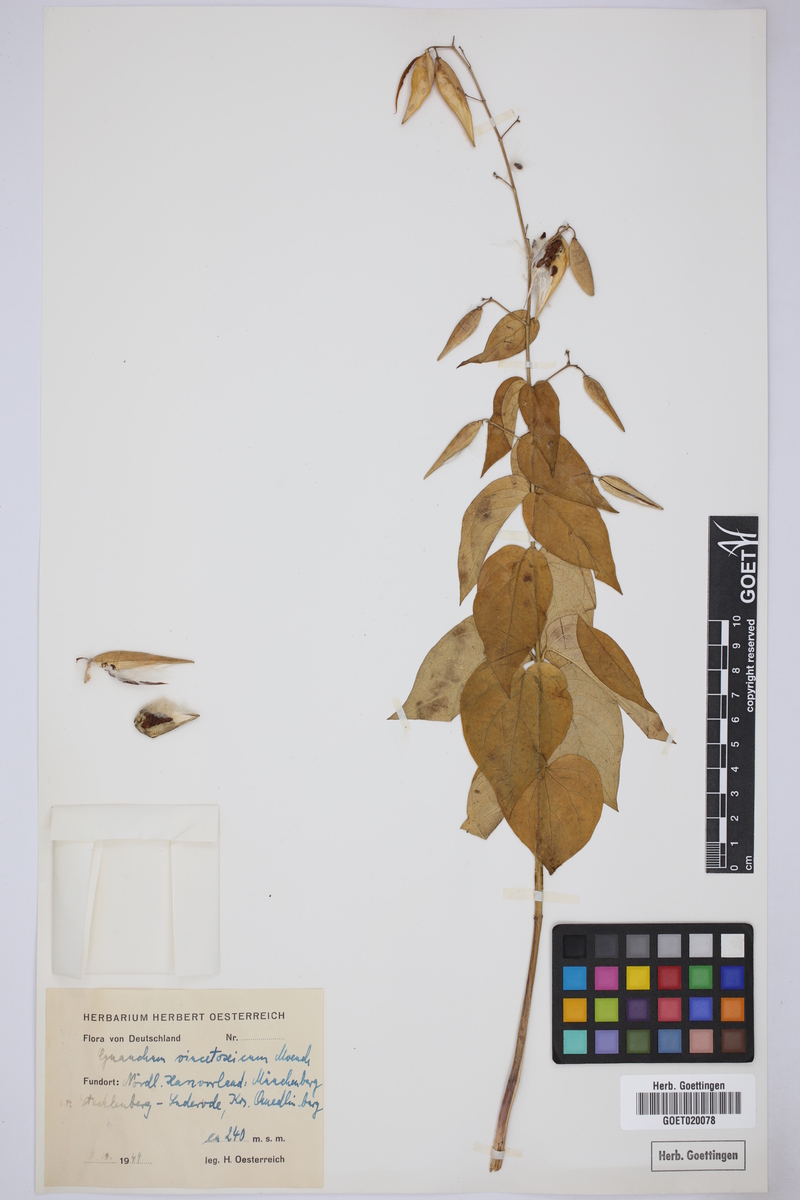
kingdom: Plantae
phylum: Tracheophyta
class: Magnoliopsida
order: Gentianales
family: Apocynaceae
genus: Vincetoxicum
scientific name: Vincetoxicum hirundinaria
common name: White swallowwort
